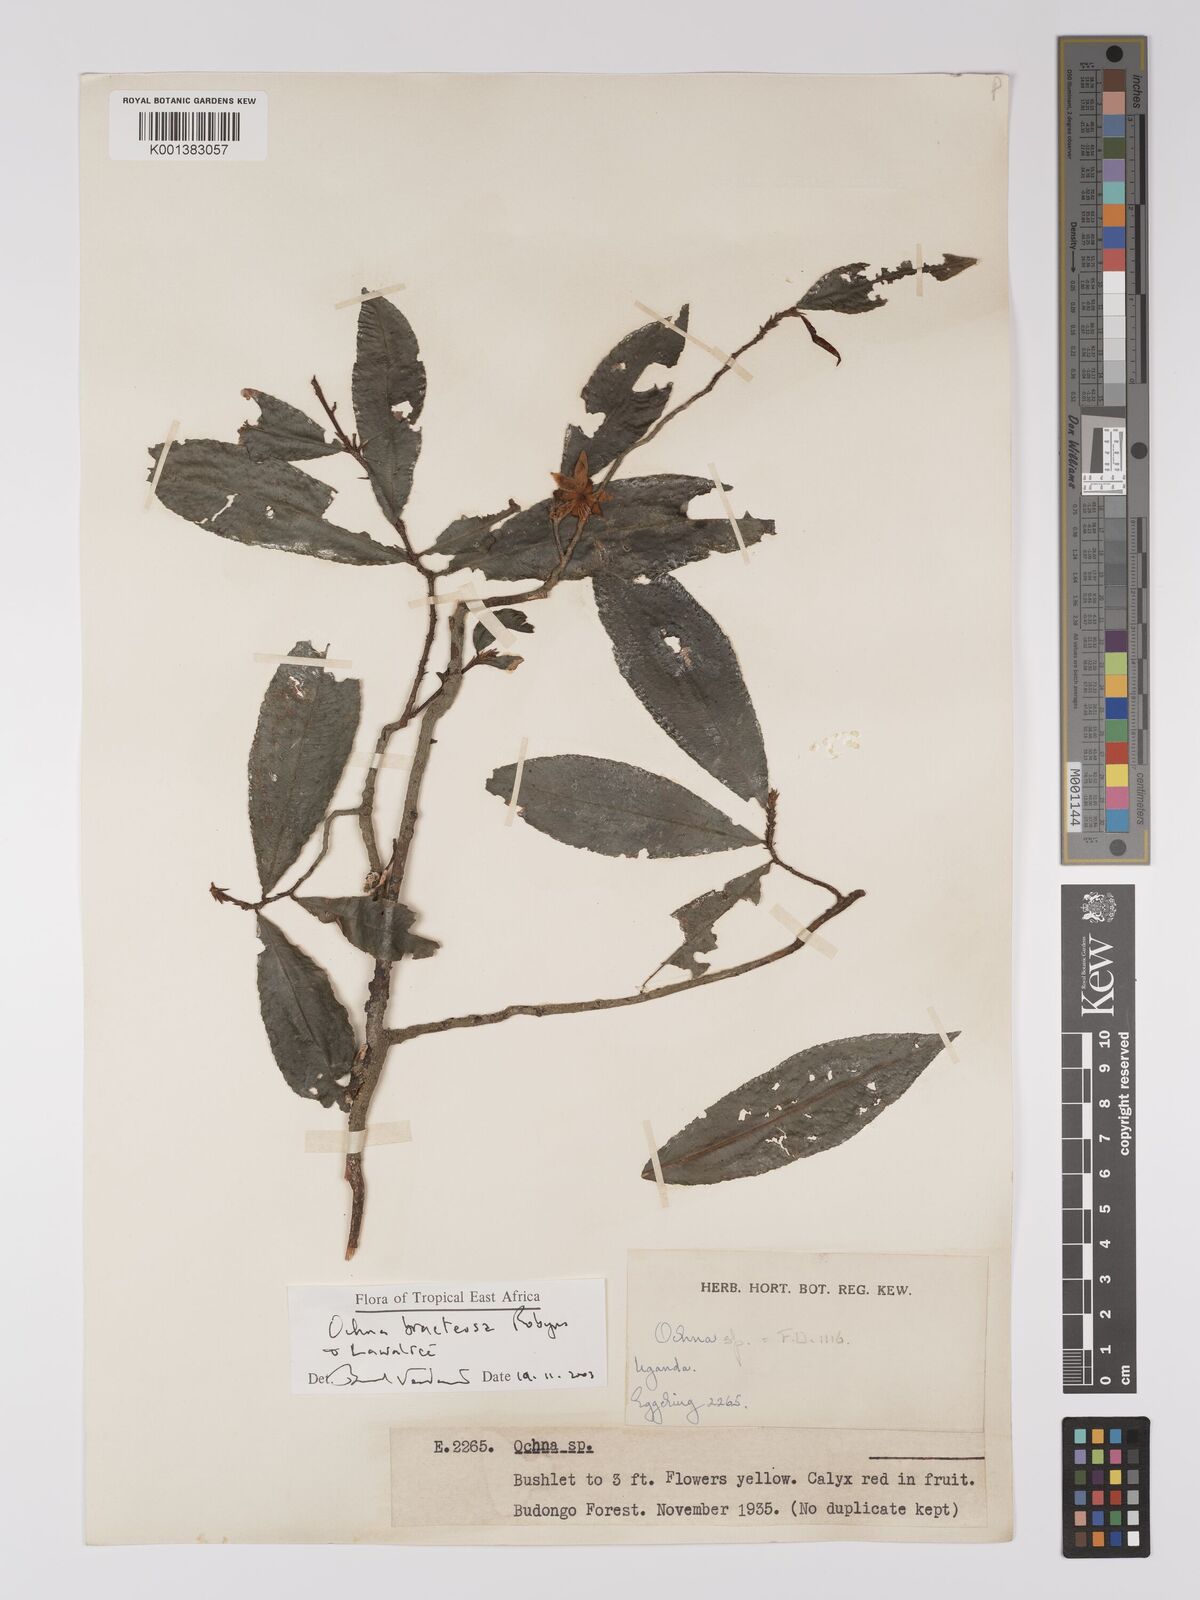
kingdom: Plantae
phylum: Tracheophyta
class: Magnoliopsida
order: Malpighiales
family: Ochnaceae
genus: Ochna
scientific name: Ochna bracteosa
